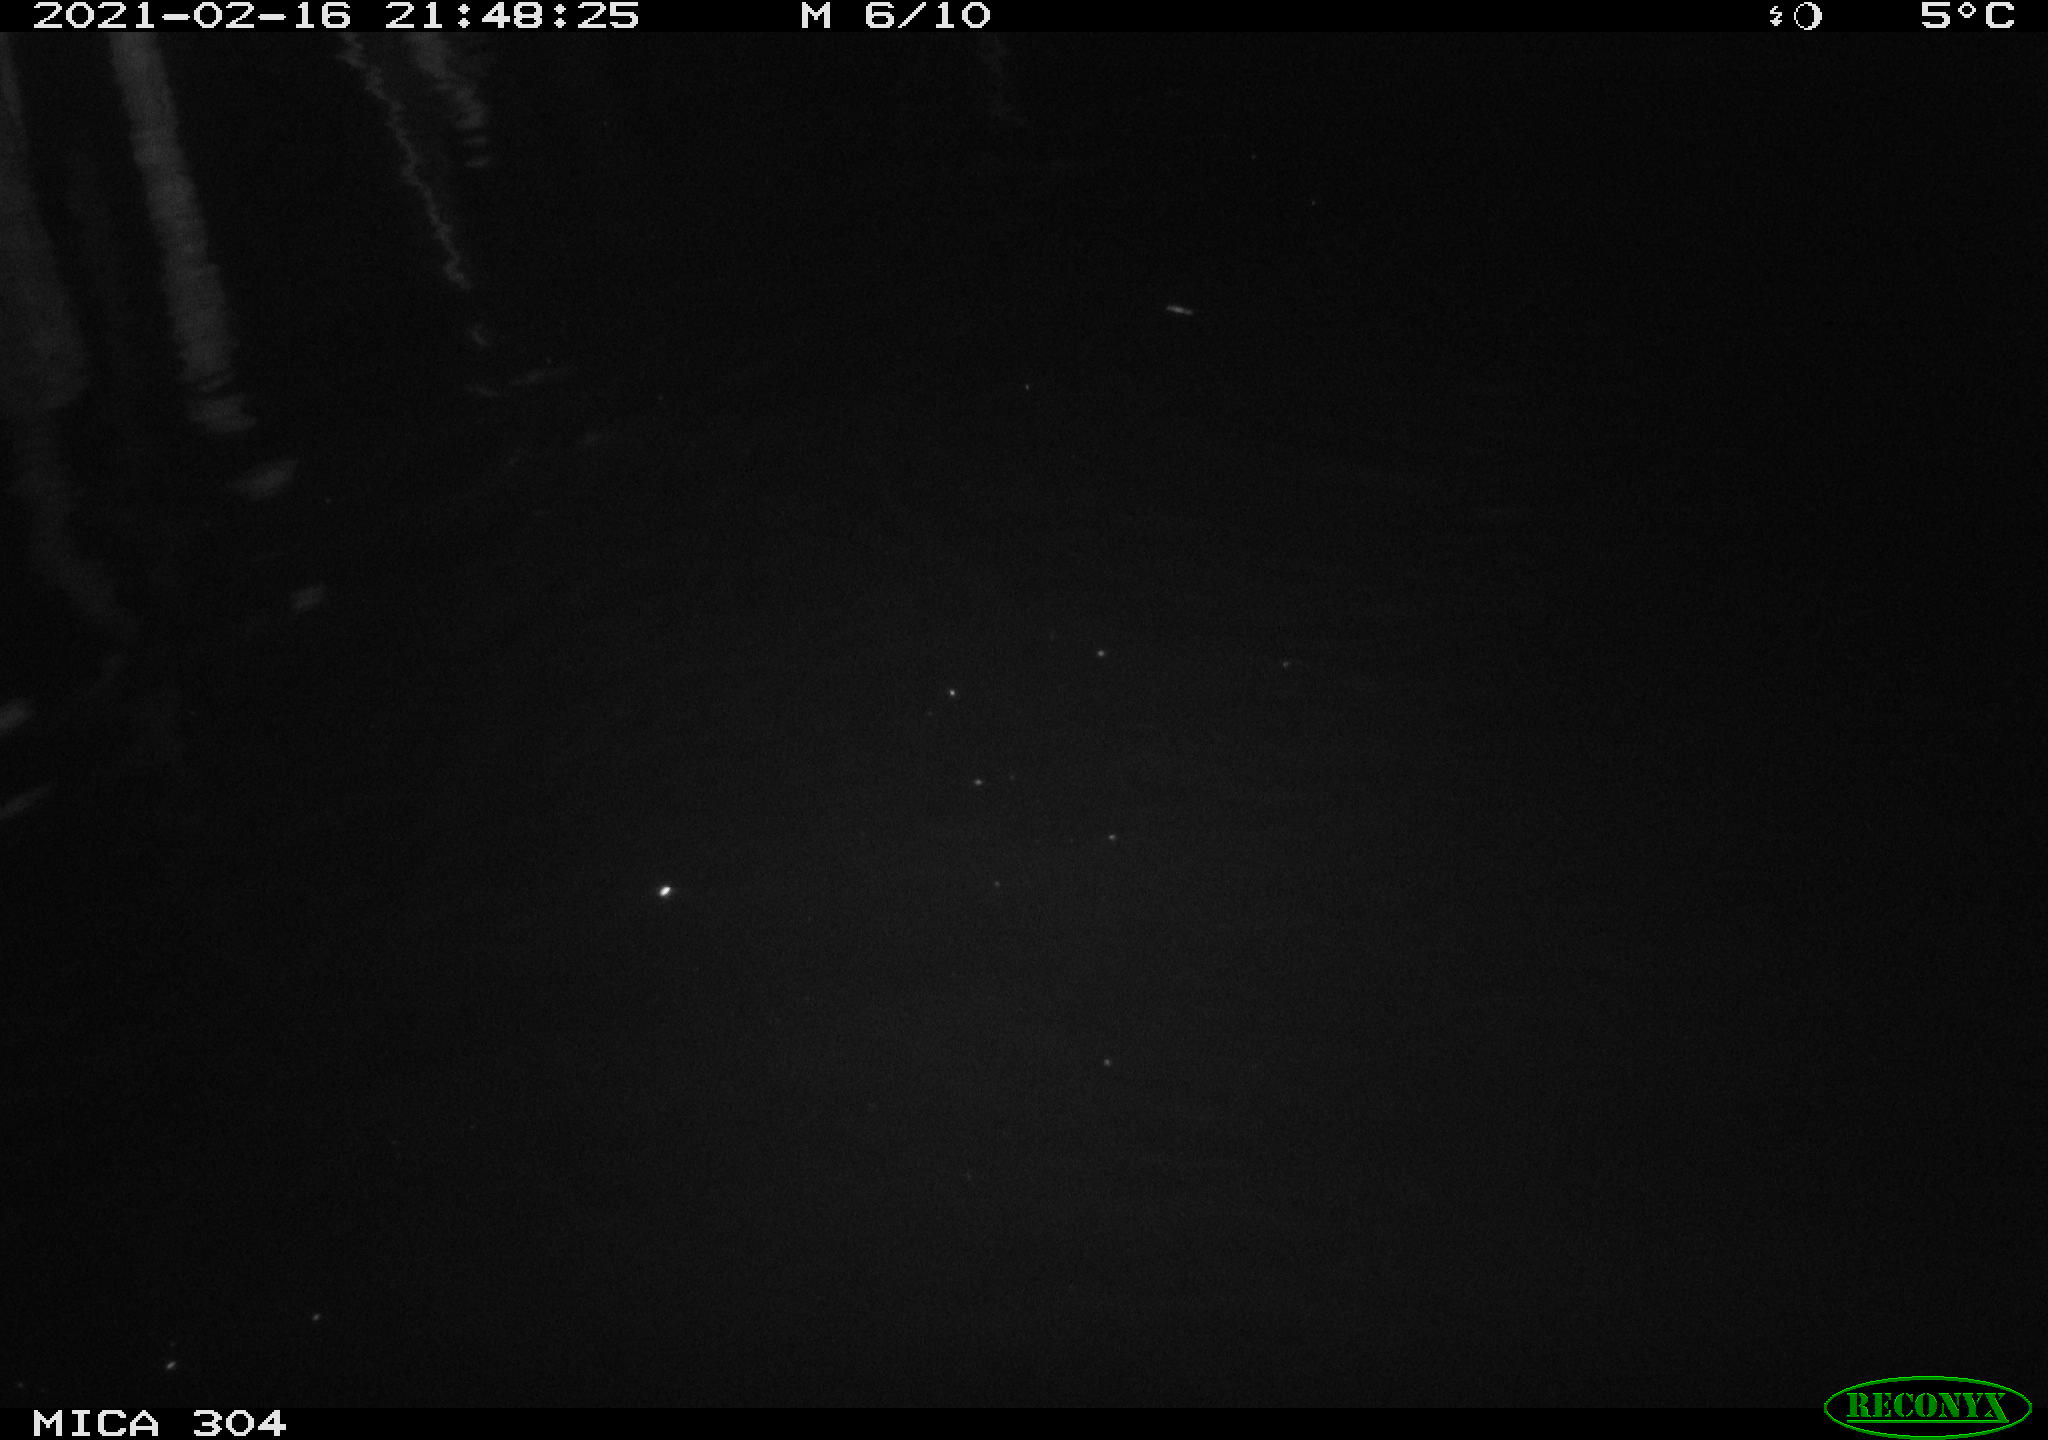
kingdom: Animalia
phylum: Chordata
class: Mammalia
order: Rodentia
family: Cricetidae
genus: Ondatra
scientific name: Ondatra zibethicus
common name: Muskrat
